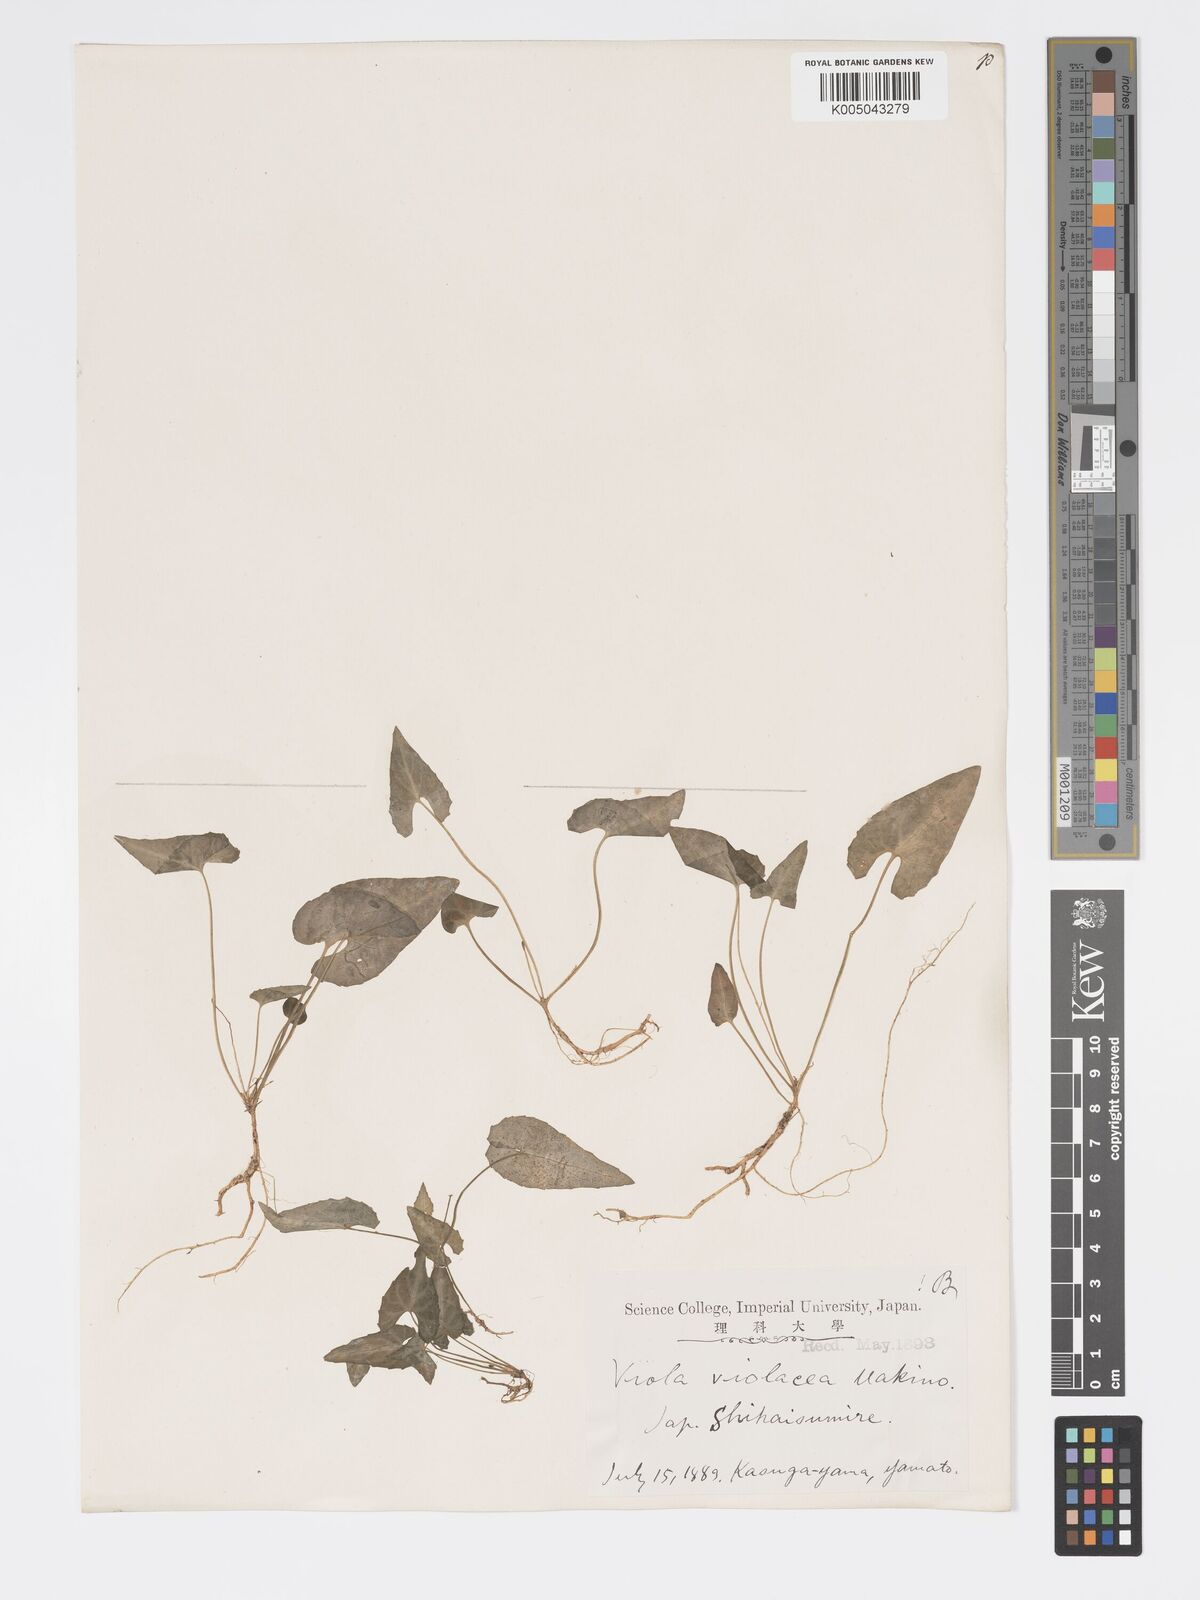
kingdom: Plantae
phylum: Tracheophyta
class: Magnoliopsida
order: Malpighiales
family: Violaceae
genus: Viola
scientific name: Viola violacea
